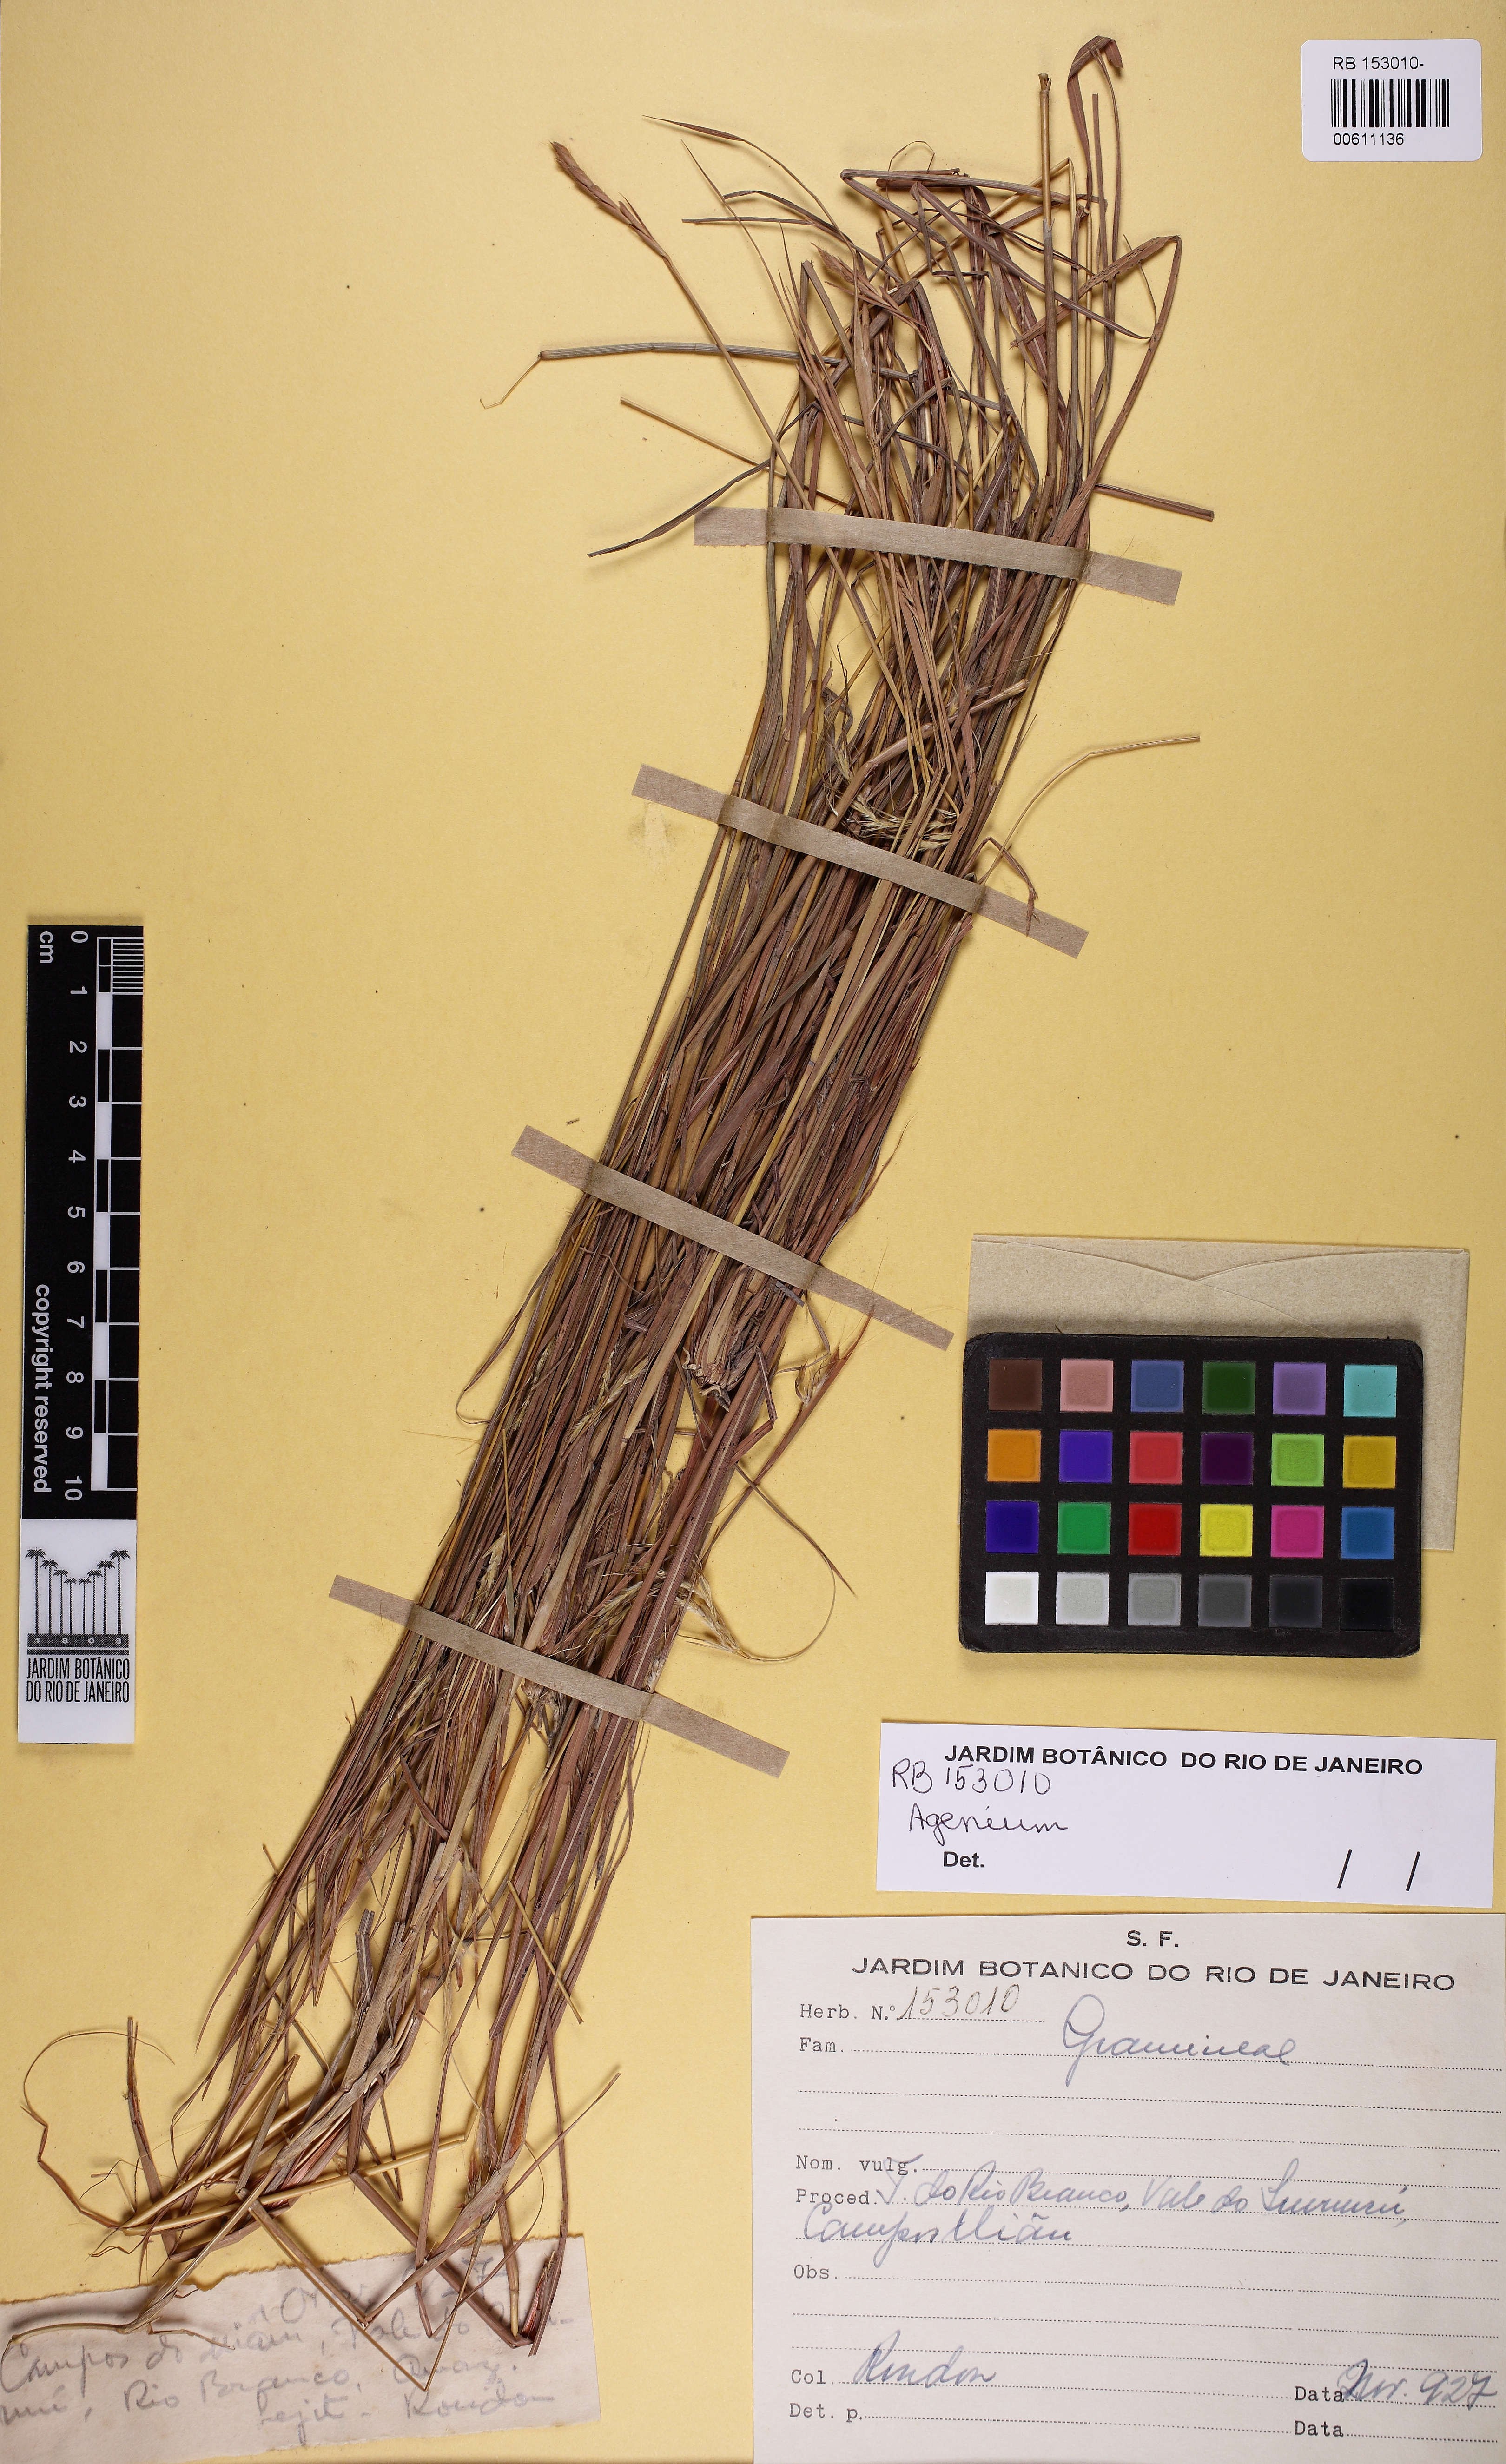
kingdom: Plantae
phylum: Tracheophyta
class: Liliopsida
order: Poales
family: Poaceae
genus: Agenium
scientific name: Agenium
